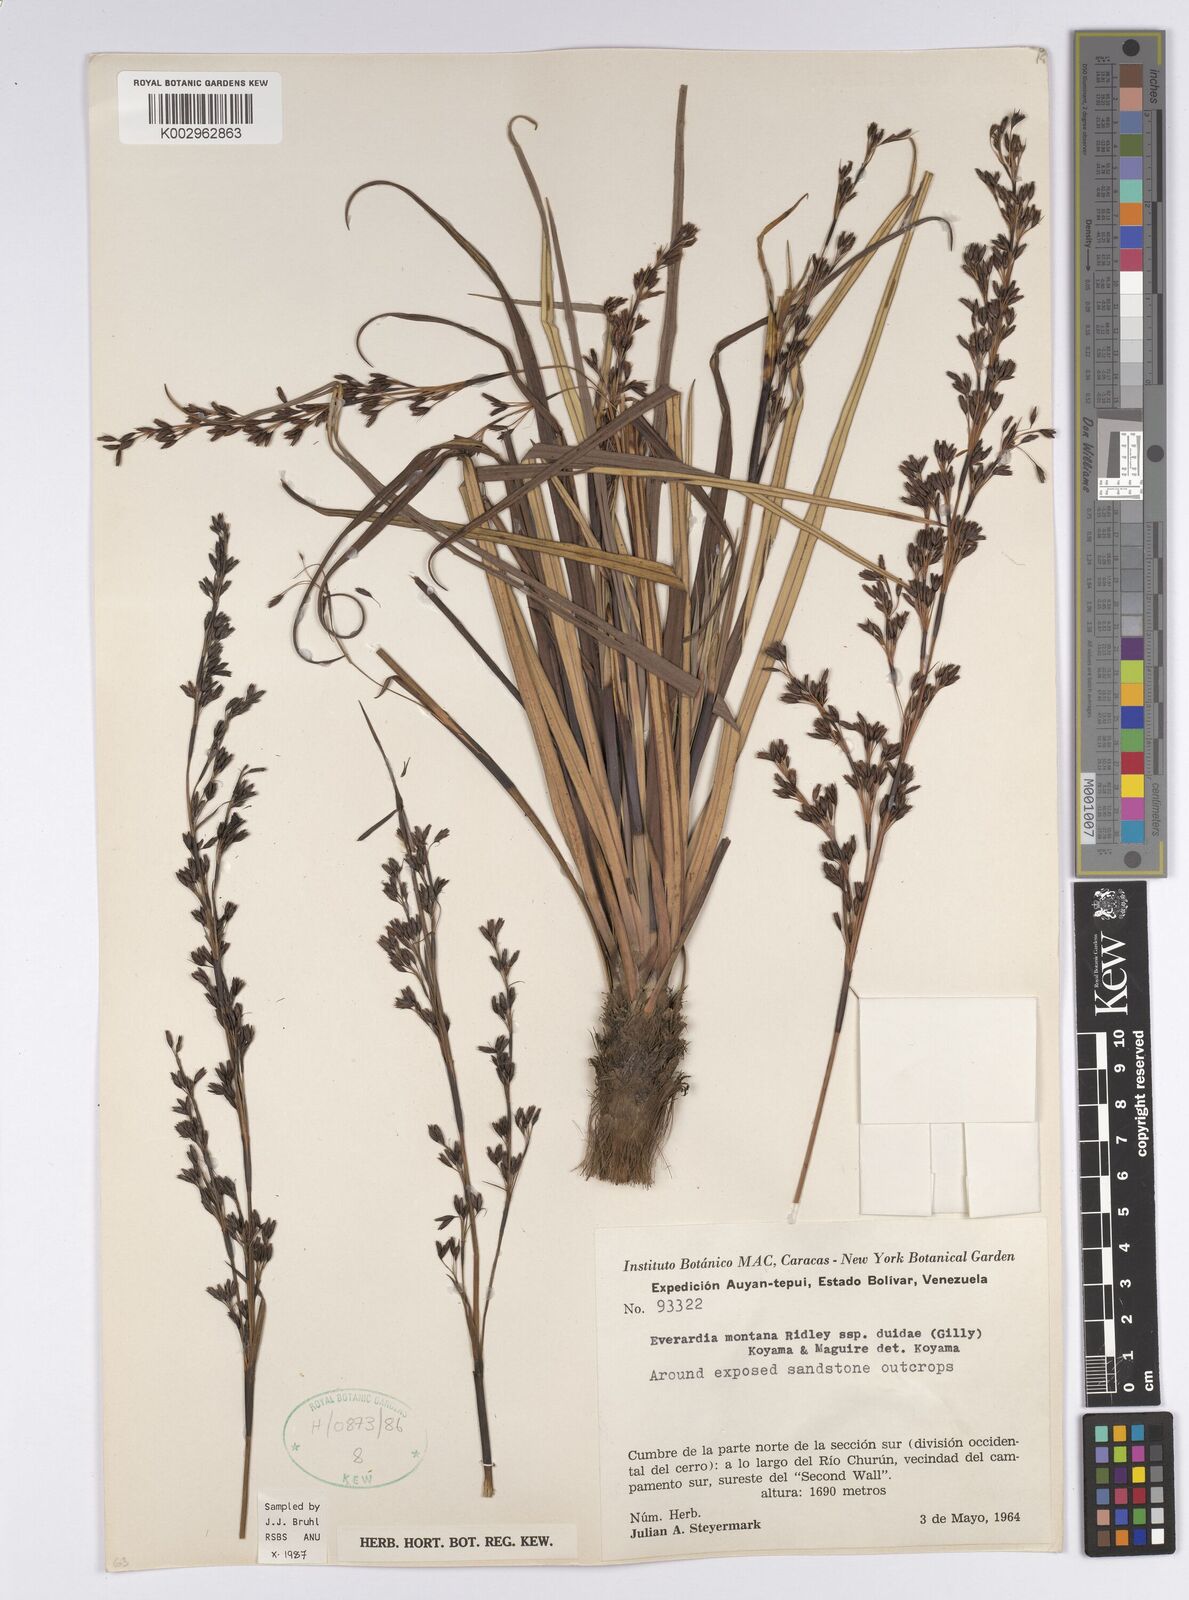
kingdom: Plantae
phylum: Tracheophyta
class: Liliopsida
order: Poales
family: Cyperaceae
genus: Cephalocarpus
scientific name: Cephalocarpus duidae
